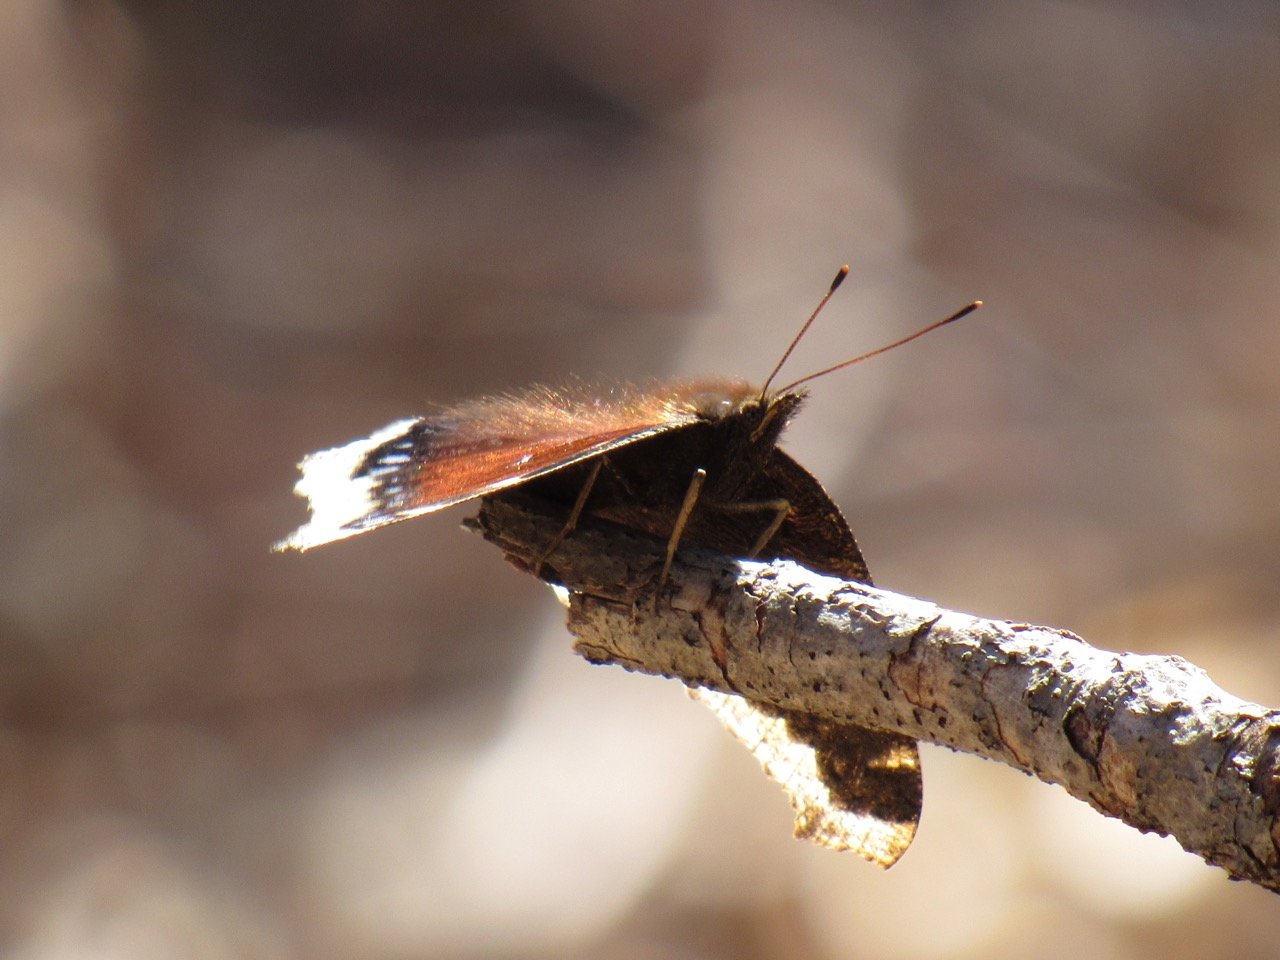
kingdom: Animalia
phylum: Arthropoda
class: Insecta
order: Lepidoptera
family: Nymphalidae
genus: Nymphalis
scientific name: Nymphalis antiopa
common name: Mourning Cloak
